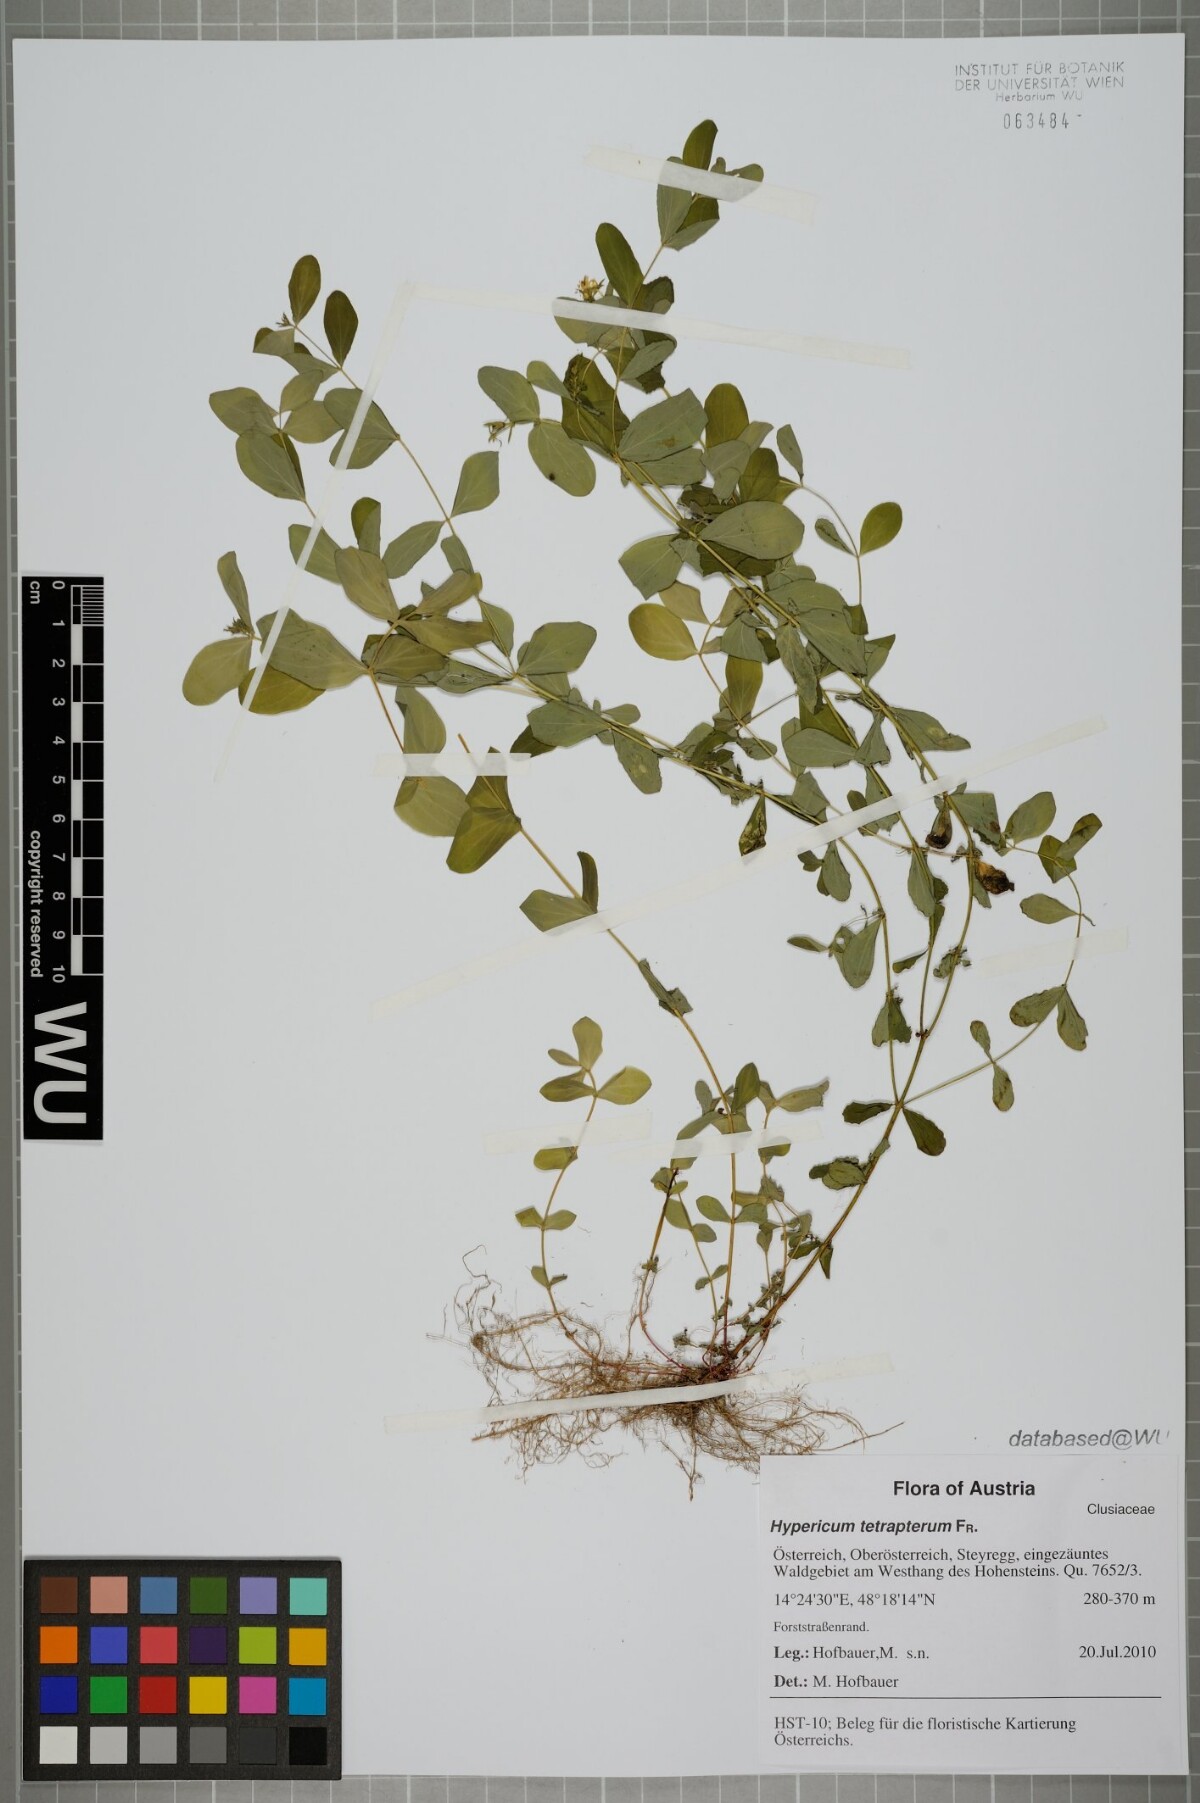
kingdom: Plantae
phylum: Tracheophyta
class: Magnoliopsida
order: Malpighiales
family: Hypericaceae
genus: Hypericum
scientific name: Hypericum tetrapterum
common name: Square-stalked st. john's-wort
